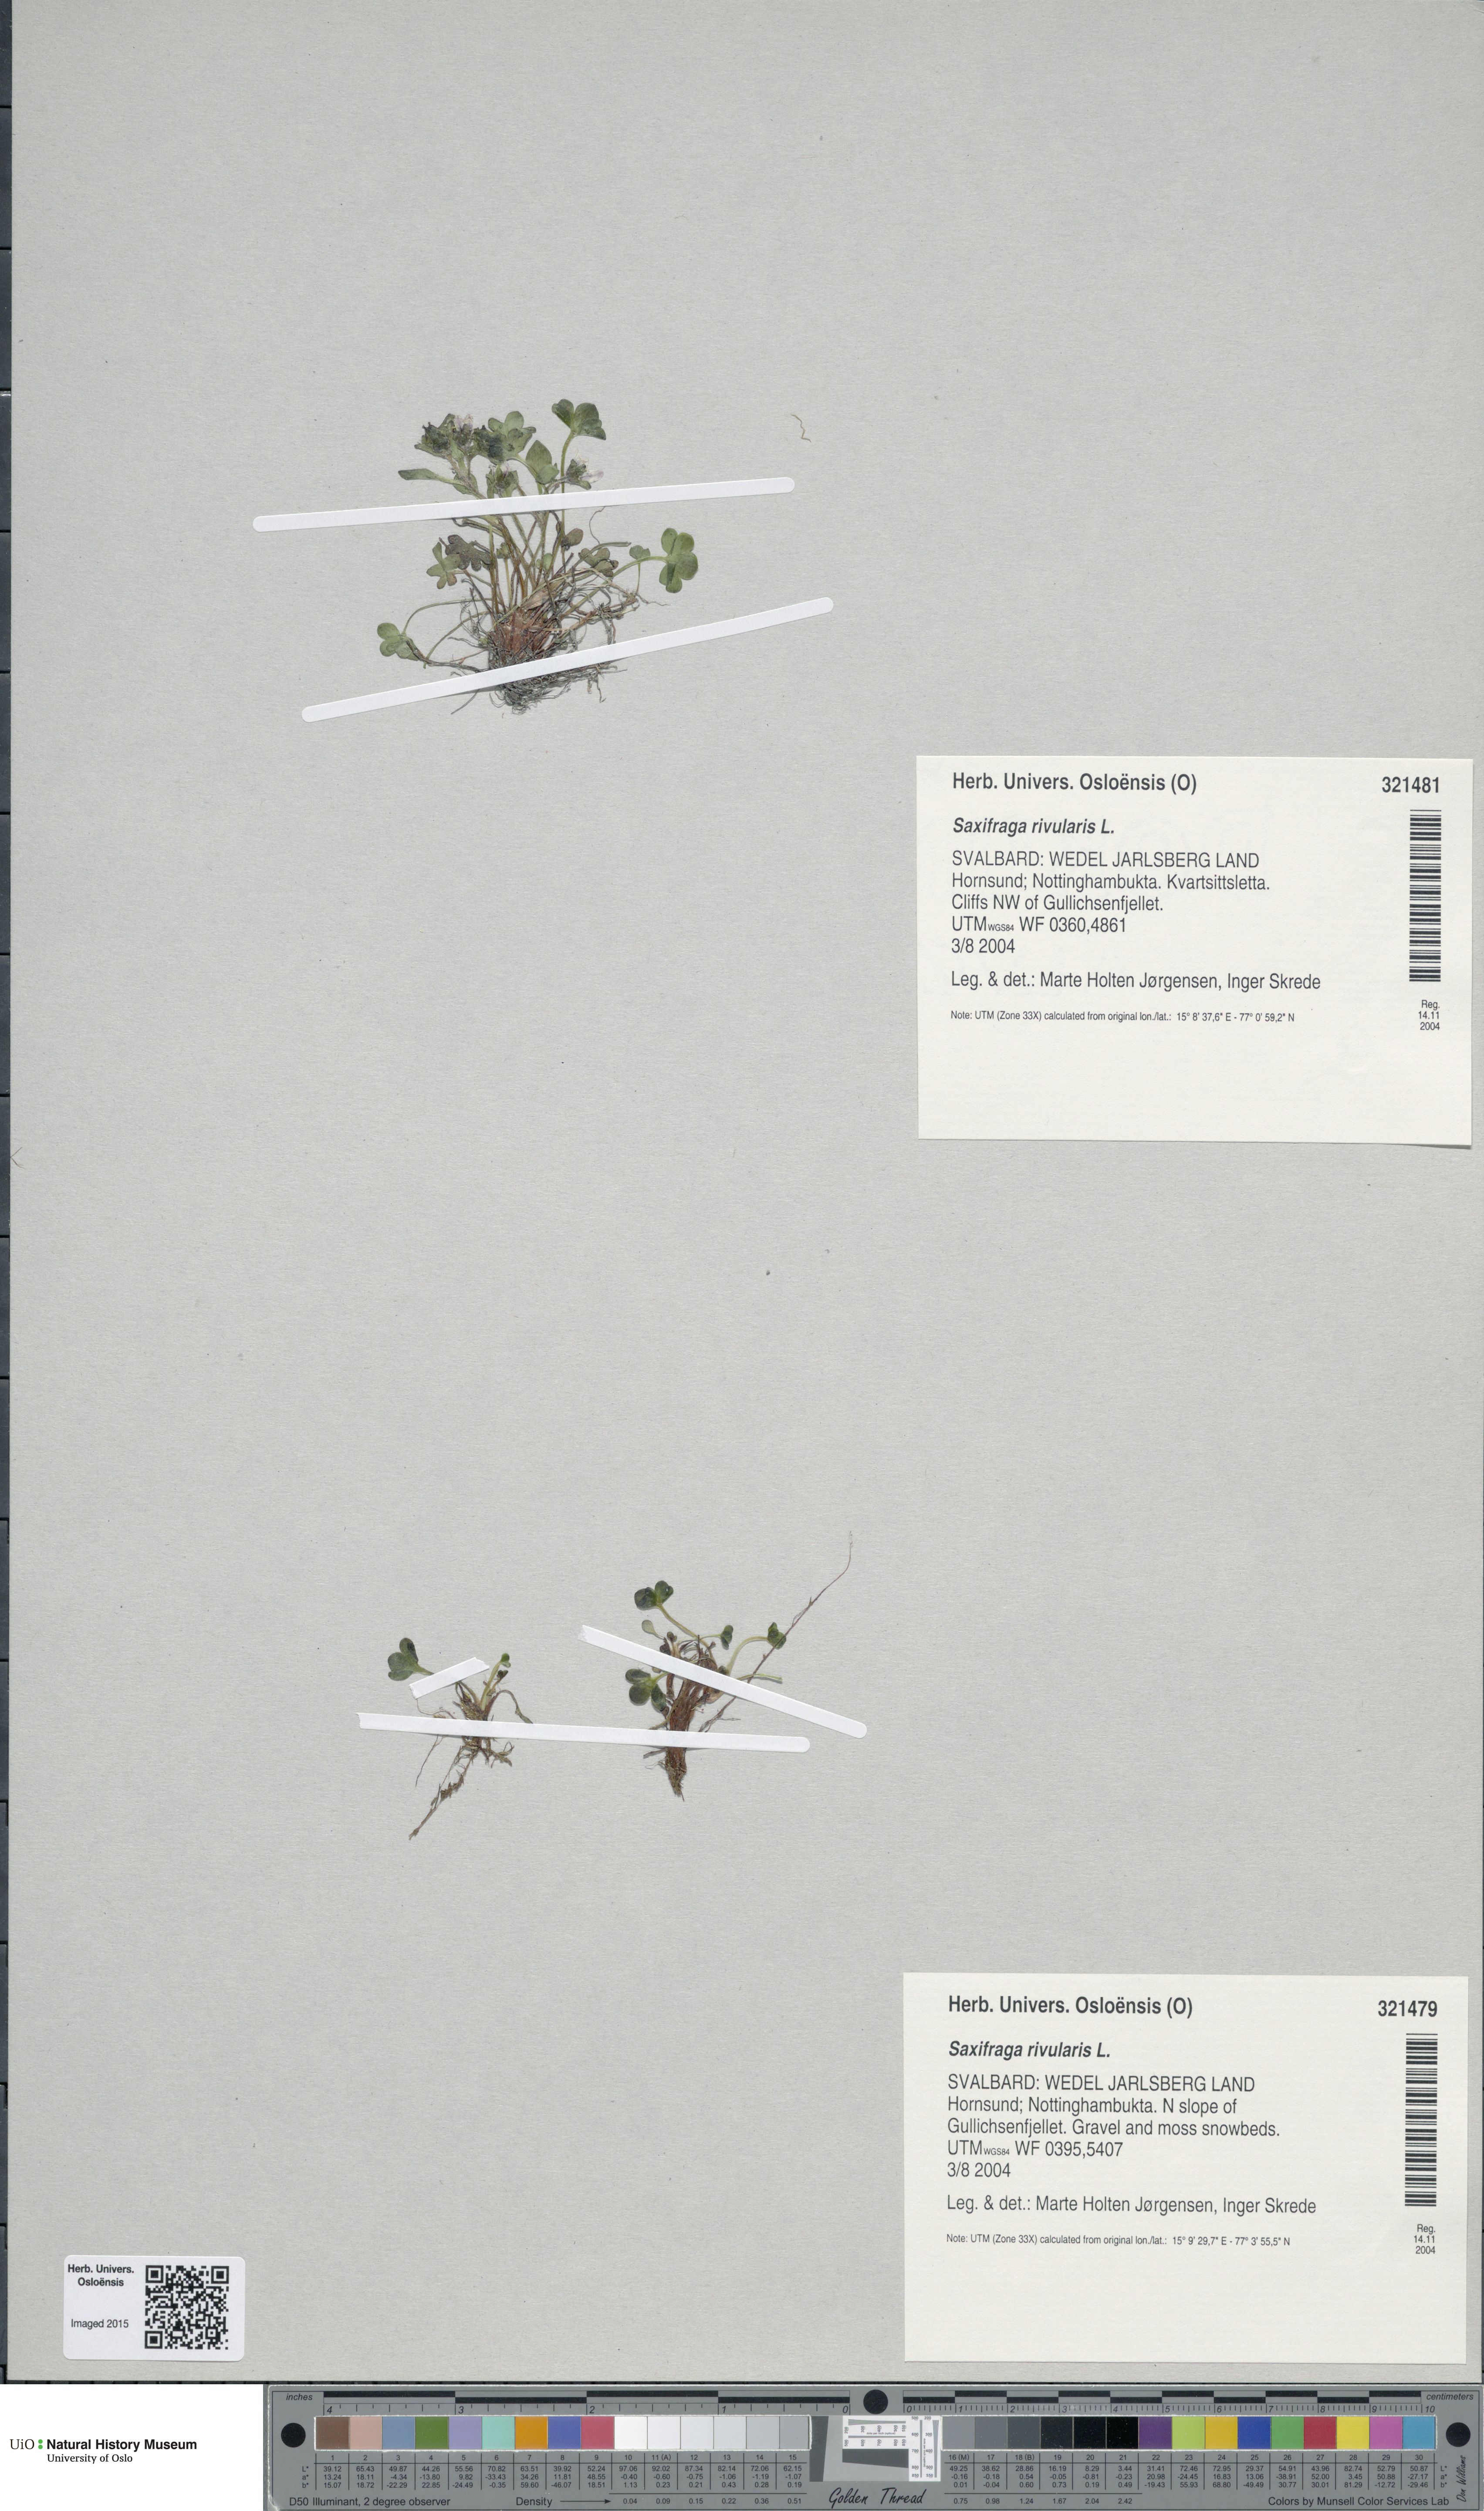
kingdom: Plantae
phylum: Tracheophyta
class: Magnoliopsida
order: Saxifragales
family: Saxifragaceae
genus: Saxifraga
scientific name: Saxifraga rivularis
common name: Highland saxifrage
